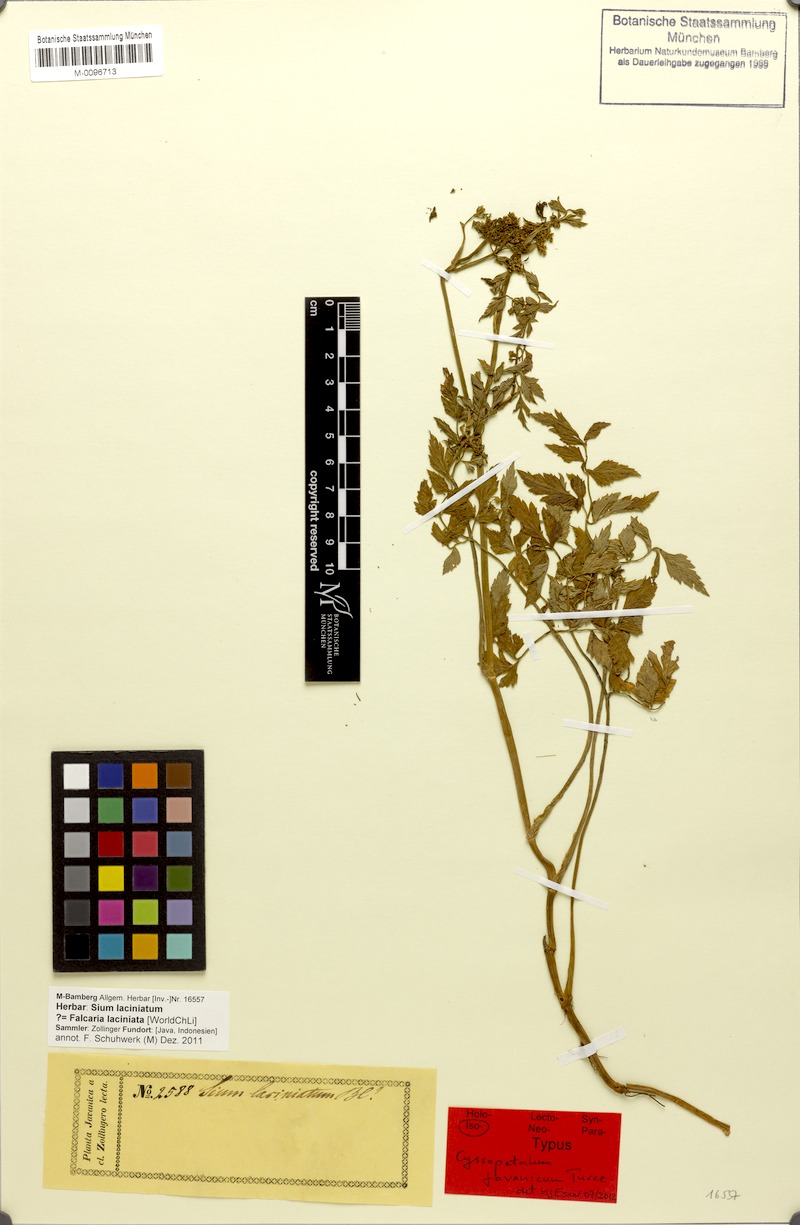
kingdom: Plantae
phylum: Tracheophyta
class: Magnoliopsida
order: Apiales
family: Apiaceae
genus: Oenanthe
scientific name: Oenanthe javanica
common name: Java water-dropwort
